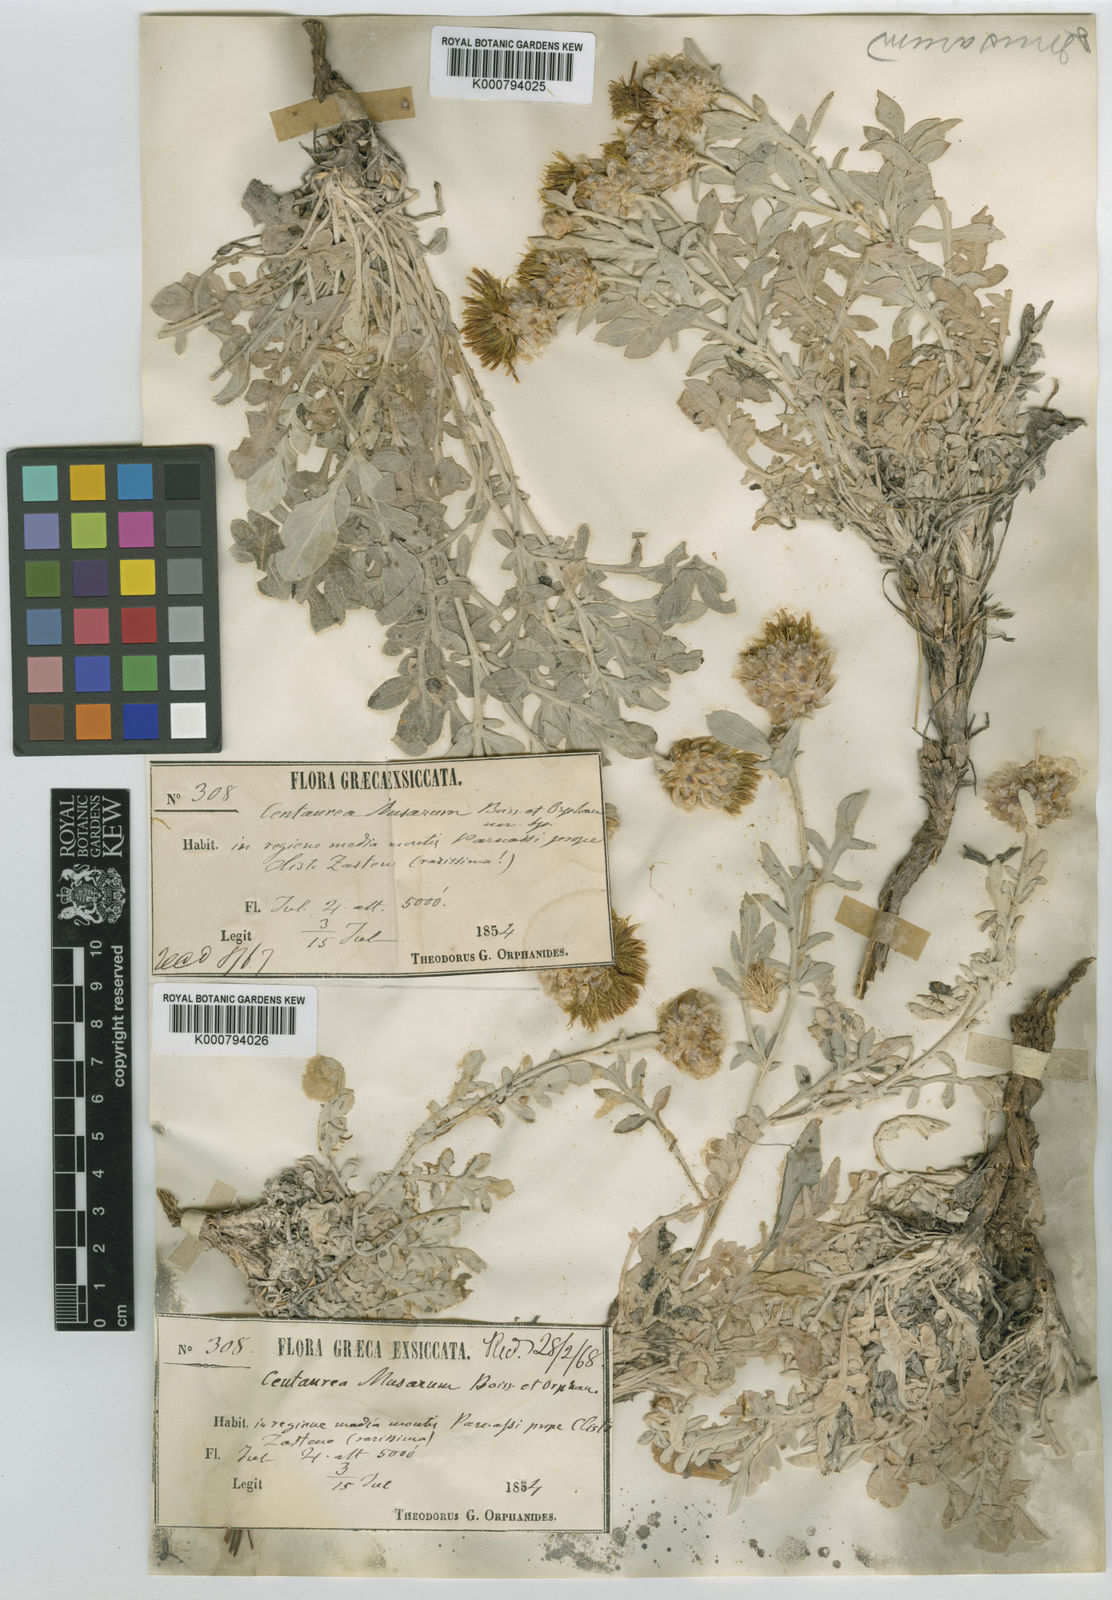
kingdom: Plantae
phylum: Tracheophyta
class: Magnoliopsida
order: Asterales
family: Asteraceae
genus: Centaurea
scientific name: Centaurea musarum
